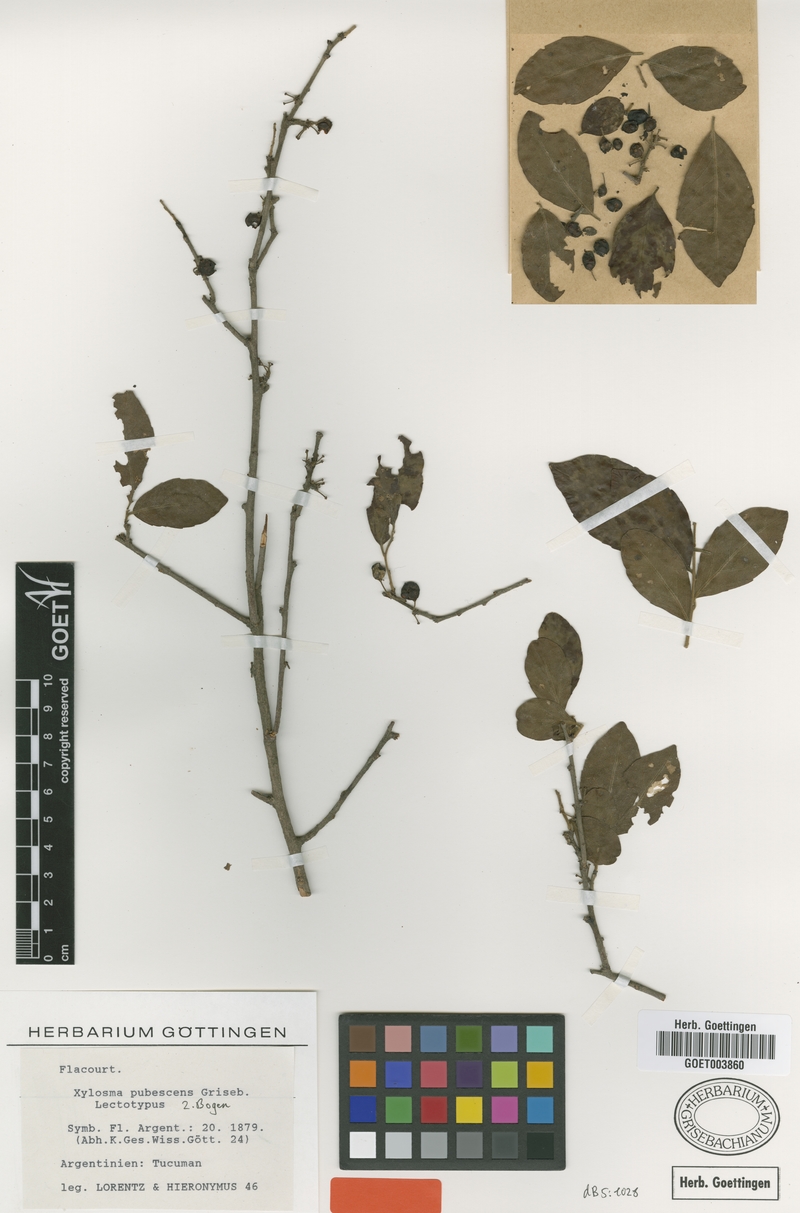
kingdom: Plantae
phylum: Tracheophyta
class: Magnoliopsida
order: Malpighiales
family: Salicaceae
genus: Xylosma
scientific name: Xylosma pubescens
